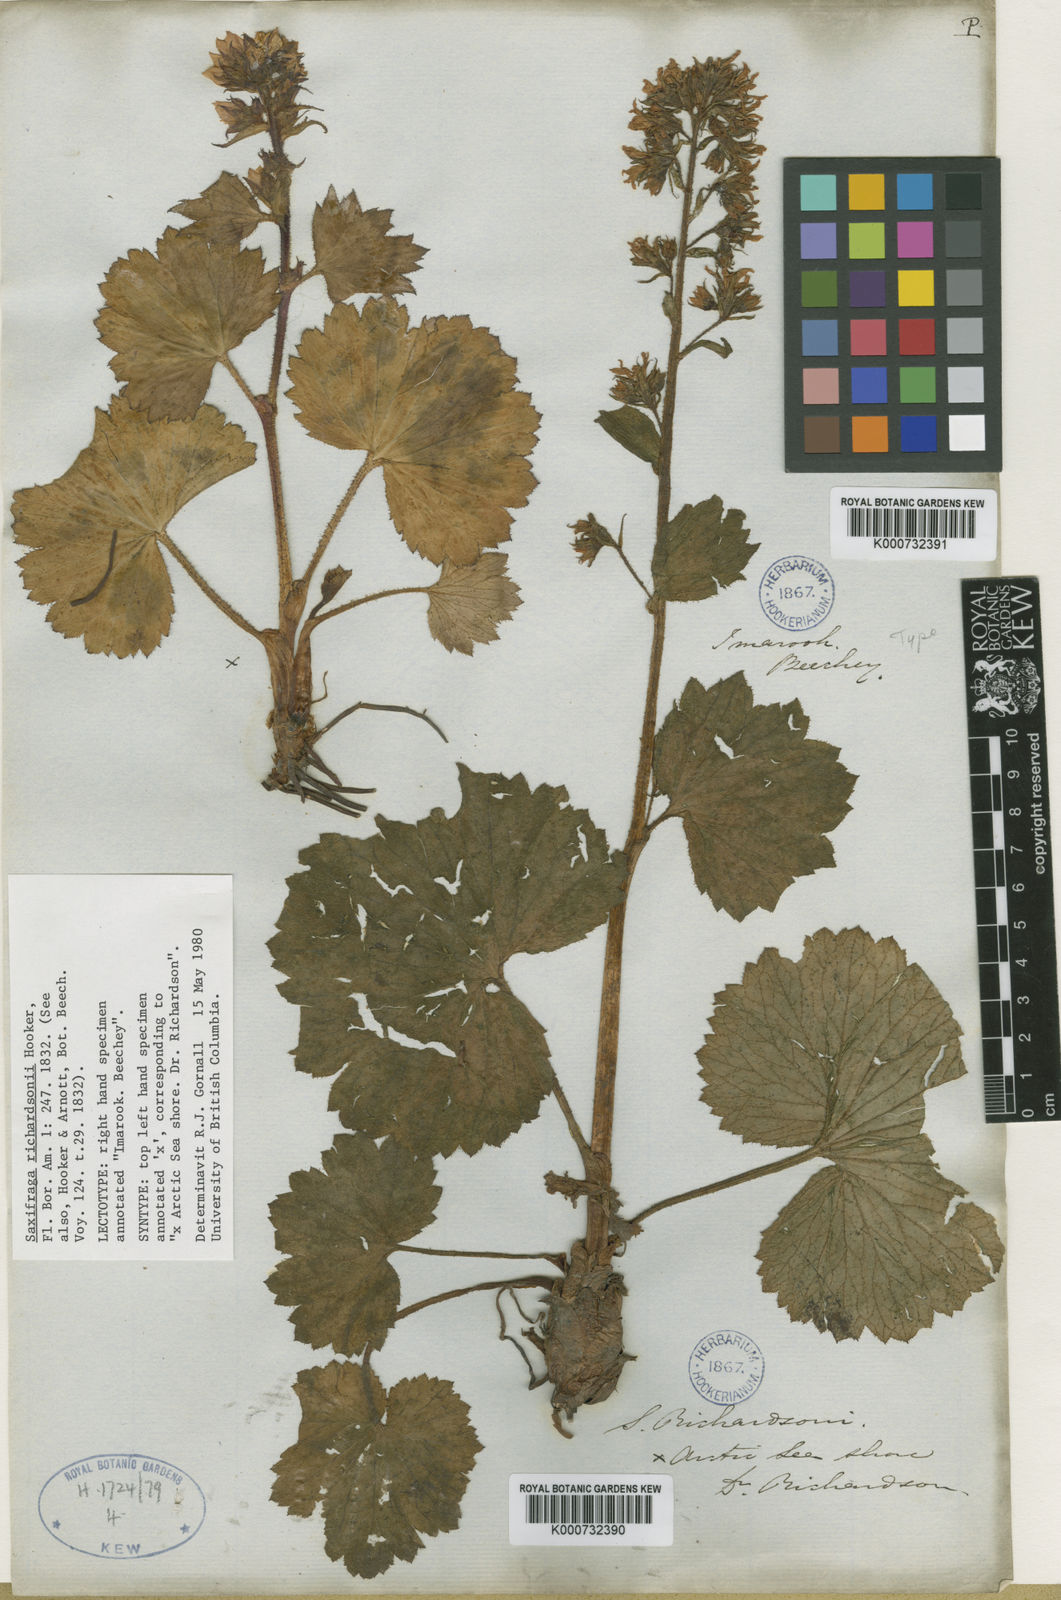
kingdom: Plantae
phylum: Tracheophyta
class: Magnoliopsida
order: Saxifragales
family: Saxifragaceae
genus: Boykinia
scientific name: Boykinia richardsonii
